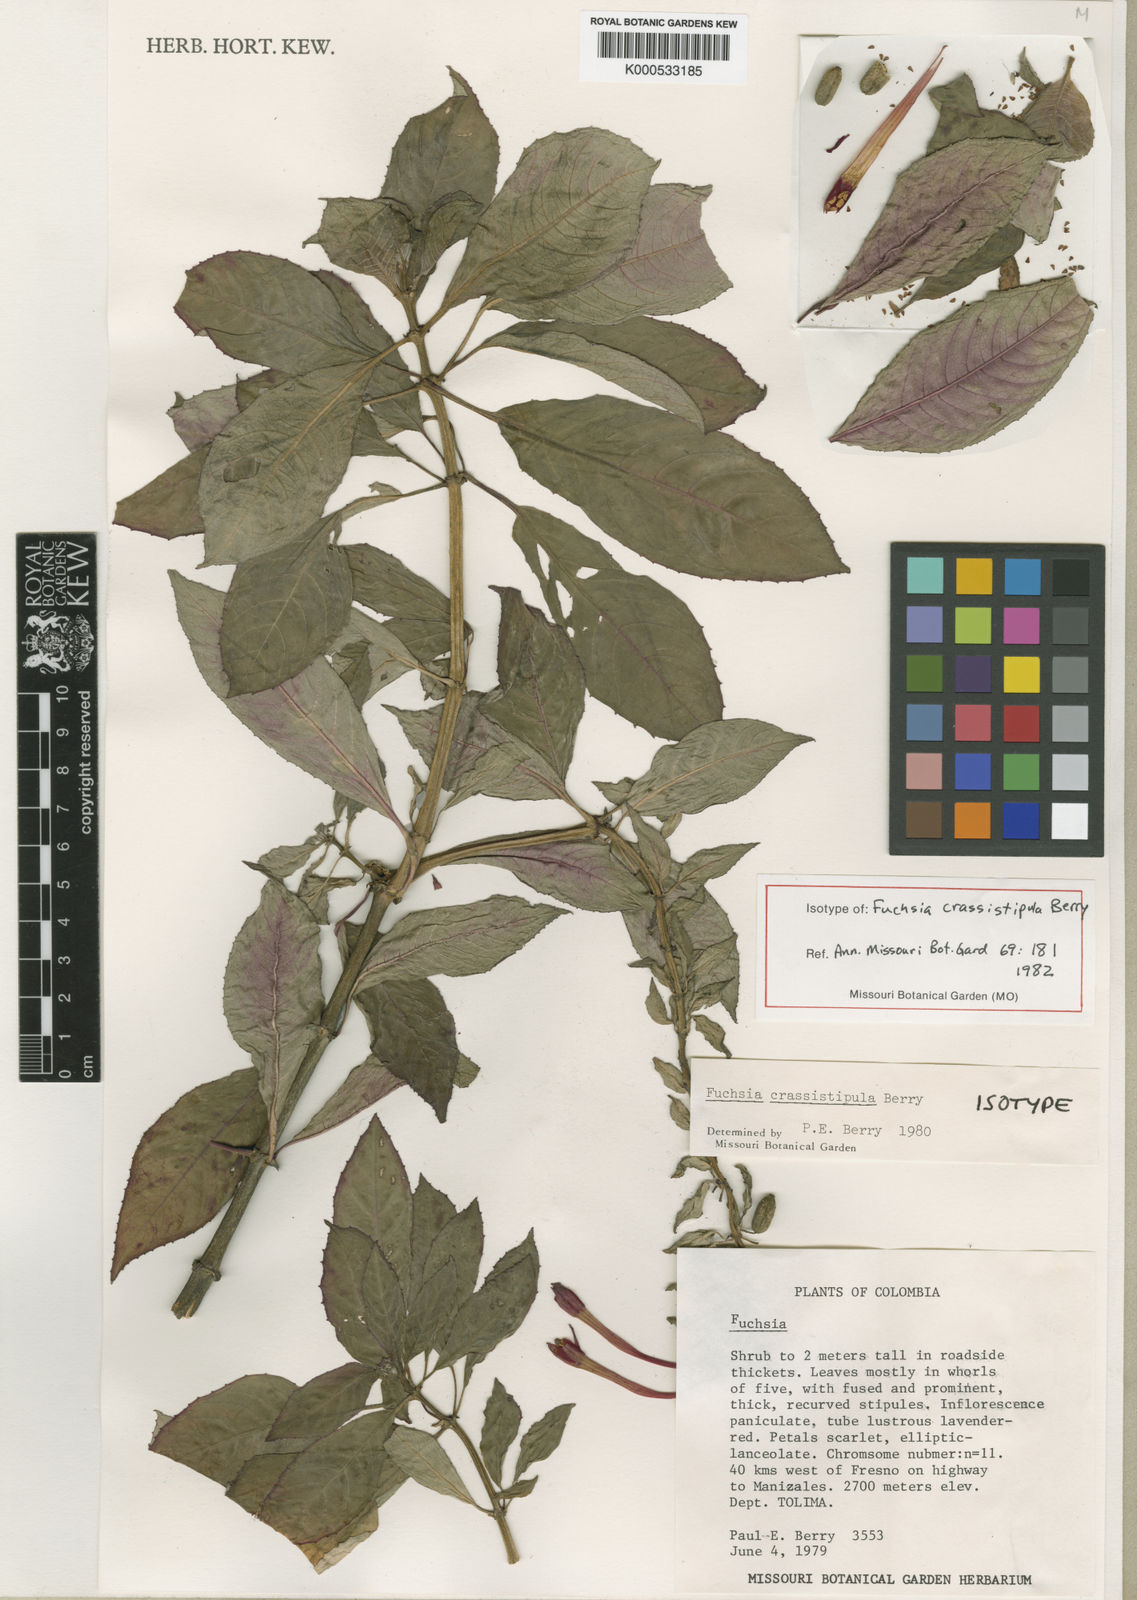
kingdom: Plantae
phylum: Tracheophyta
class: Magnoliopsida
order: Myrtales
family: Onagraceae
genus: Fuchsia
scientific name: Fuchsia crassistipula
